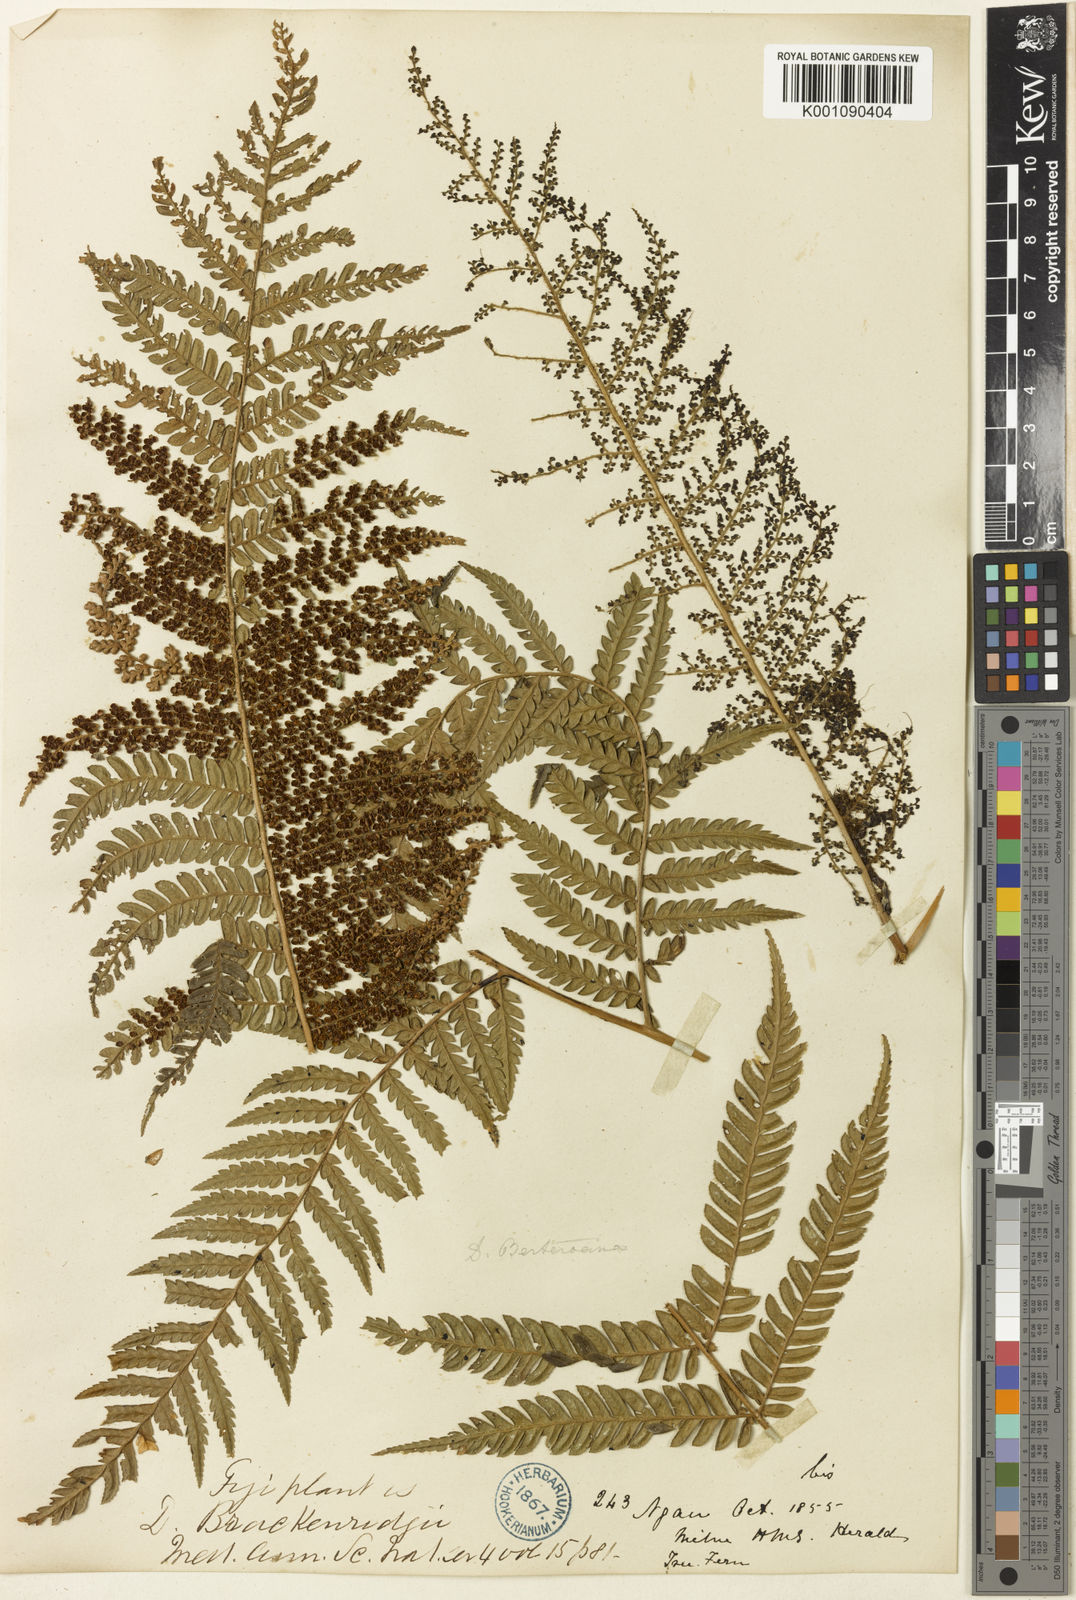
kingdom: Plantae
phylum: Tracheophyta
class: Polypodiopsida
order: Cyatheales
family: Dicksoniaceae
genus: Dicksonia
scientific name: Dicksonia brackenridgei
